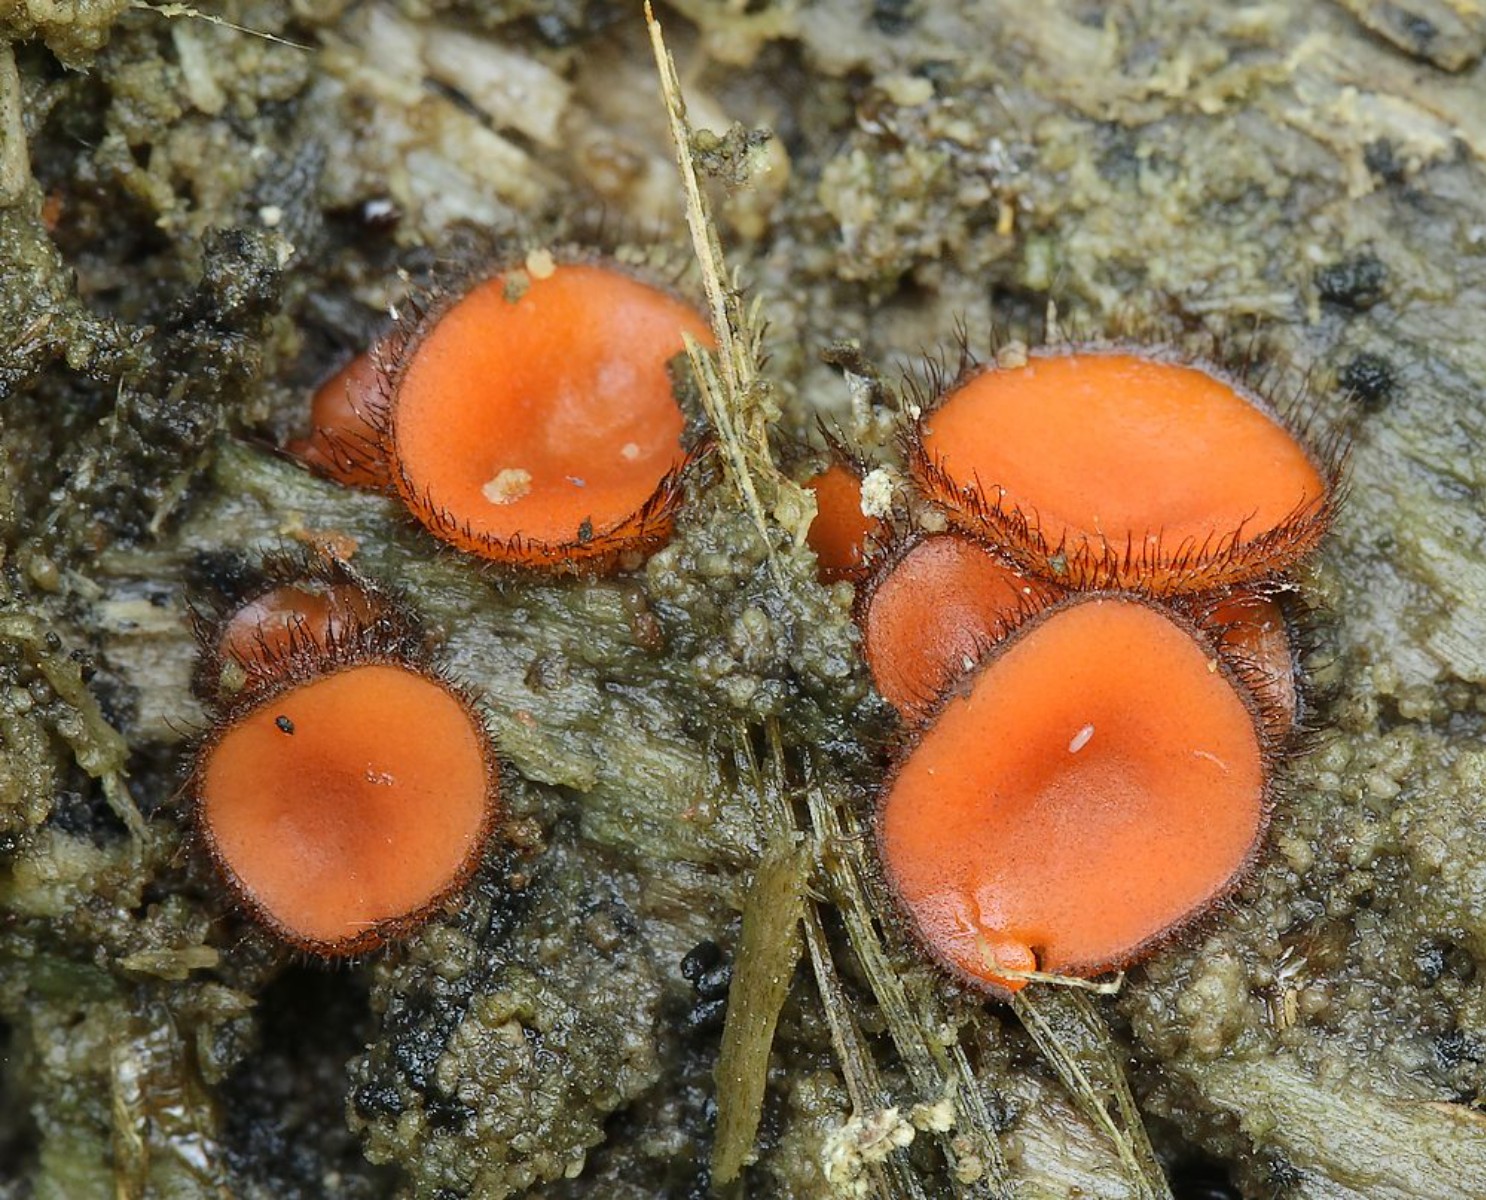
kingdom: Fungi
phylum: Ascomycota
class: Pezizomycetes
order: Pezizales
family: Pyronemataceae
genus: Scutellinia
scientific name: Scutellinia scutellata
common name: frynset skjoldbæger
